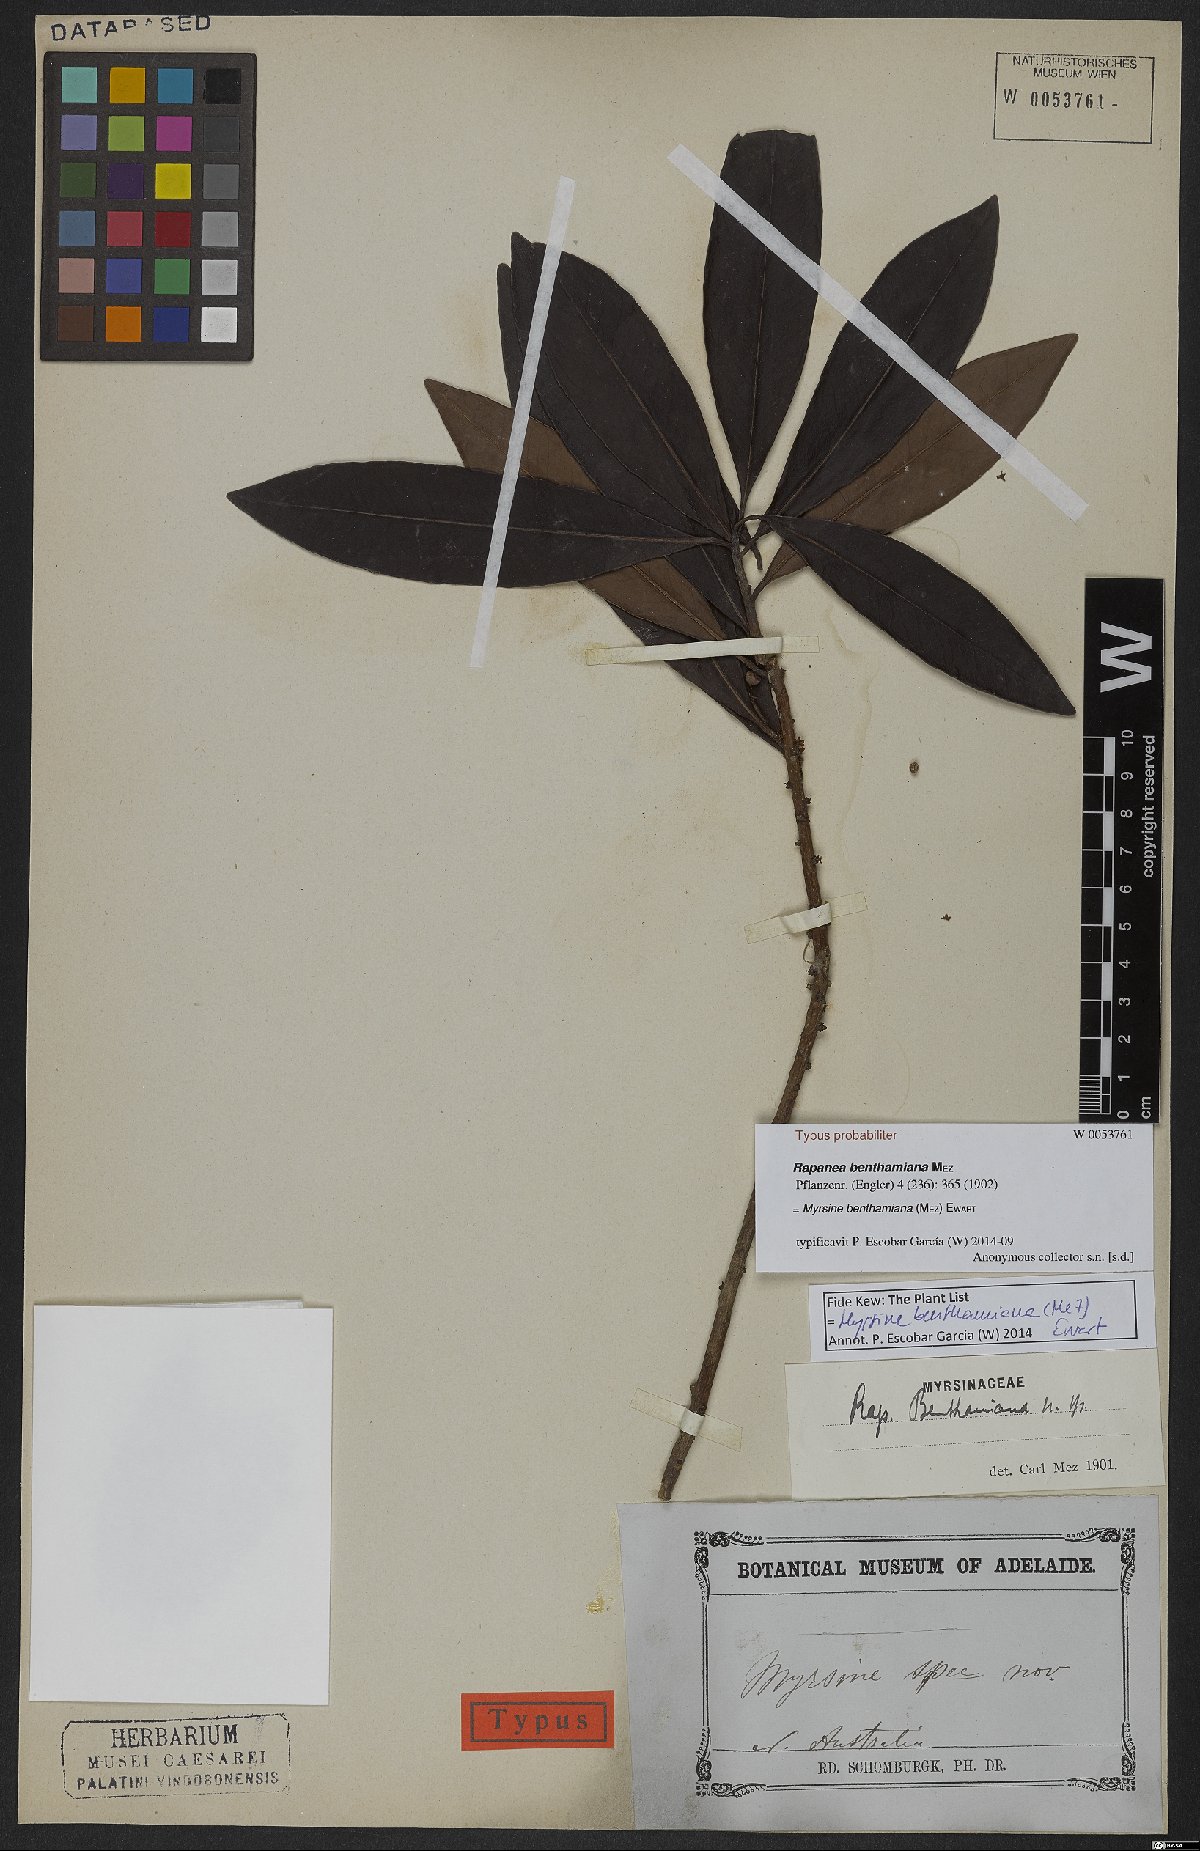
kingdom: Plantae
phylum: Tracheophyta
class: Magnoliopsida
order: Ericales
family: Primulaceae
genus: Myrsine
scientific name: Myrsine benthamiana
